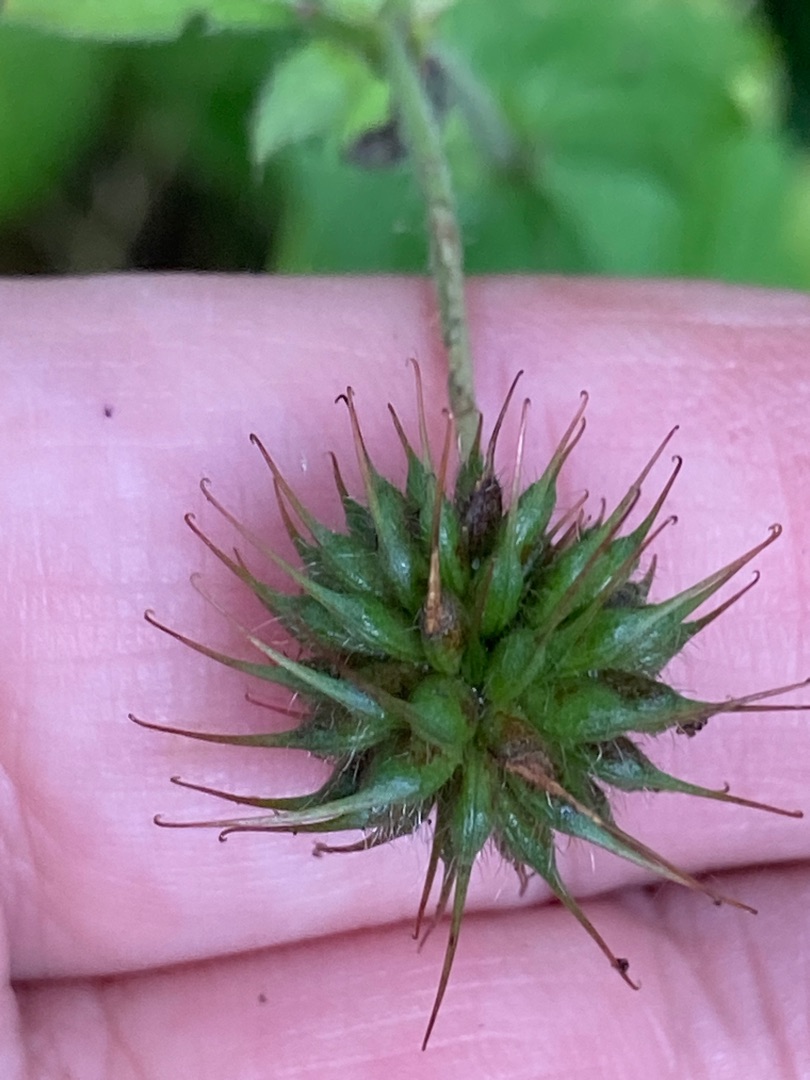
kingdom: Plantae
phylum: Tracheophyta
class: Magnoliopsida
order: Rosales
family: Rosaceae
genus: Geum
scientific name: Geum urbanum
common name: Feber-nellikerod
